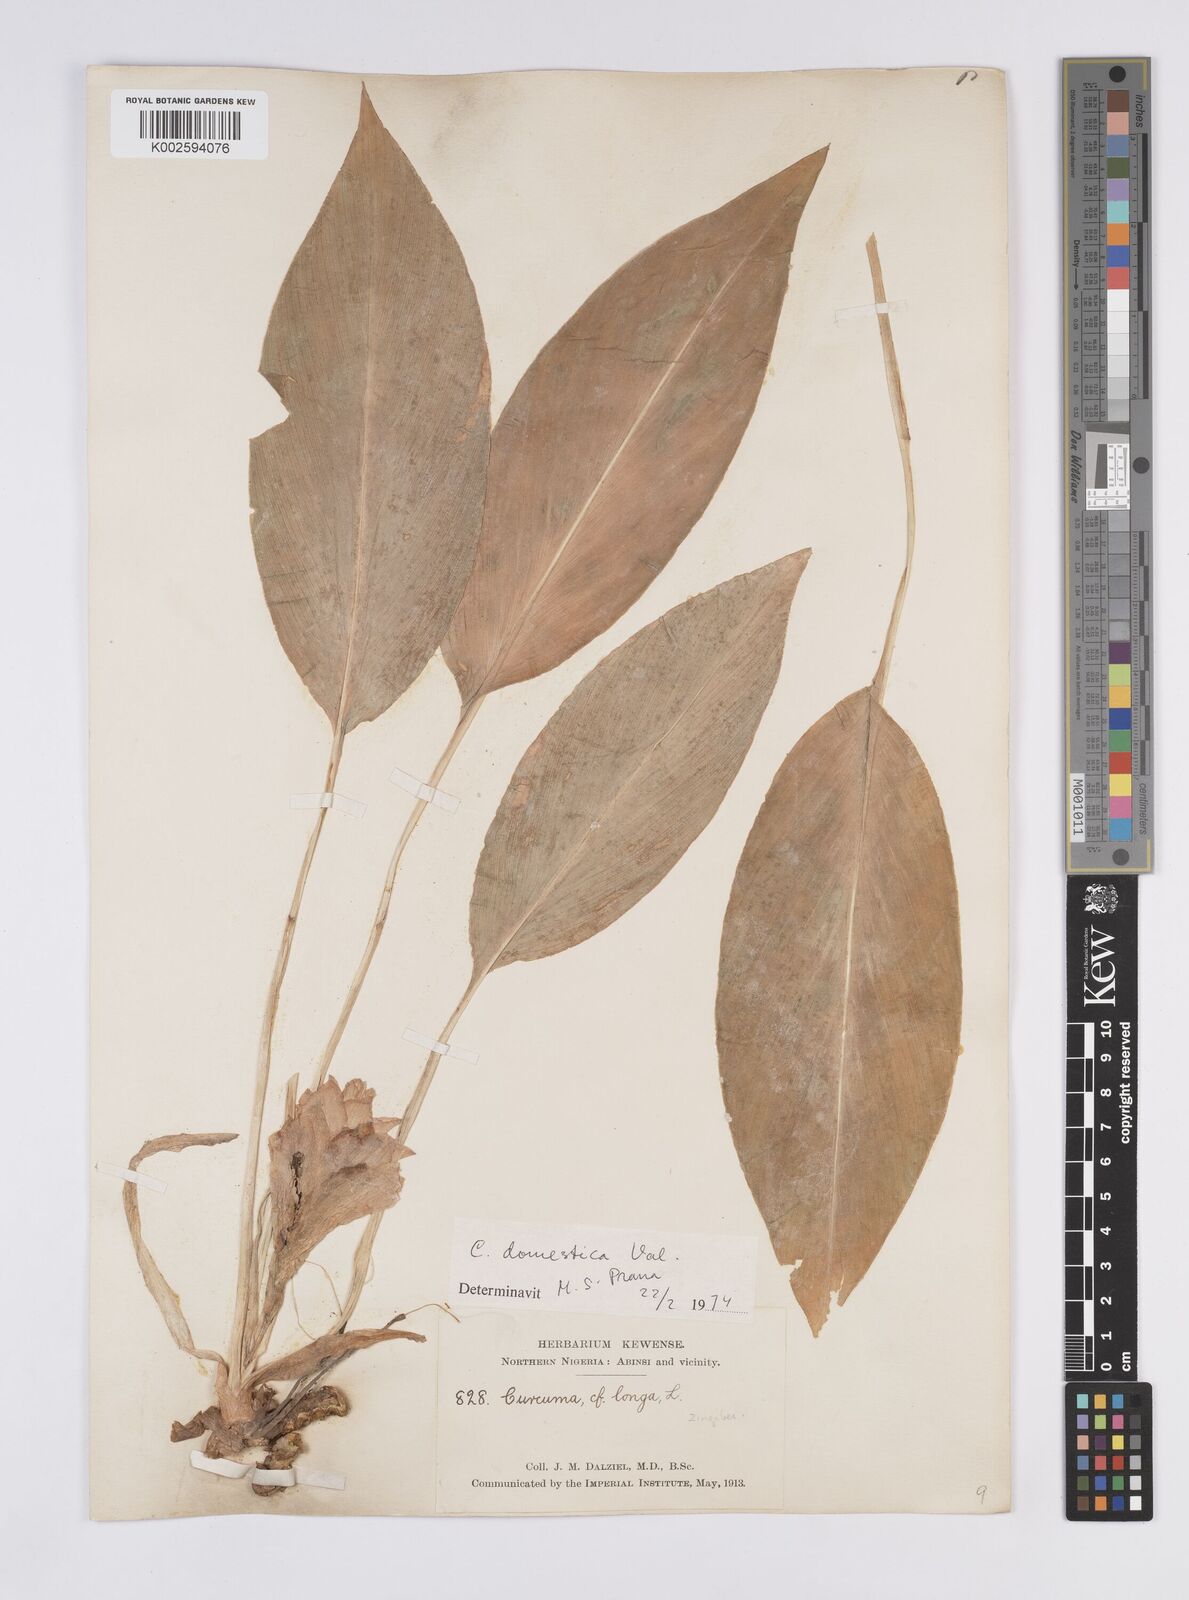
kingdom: Plantae
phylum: Tracheophyta
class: Liliopsida
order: Zingiberales
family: Zingiberaceae
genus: Curcuma
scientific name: Curcuma longa
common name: Turmeric
